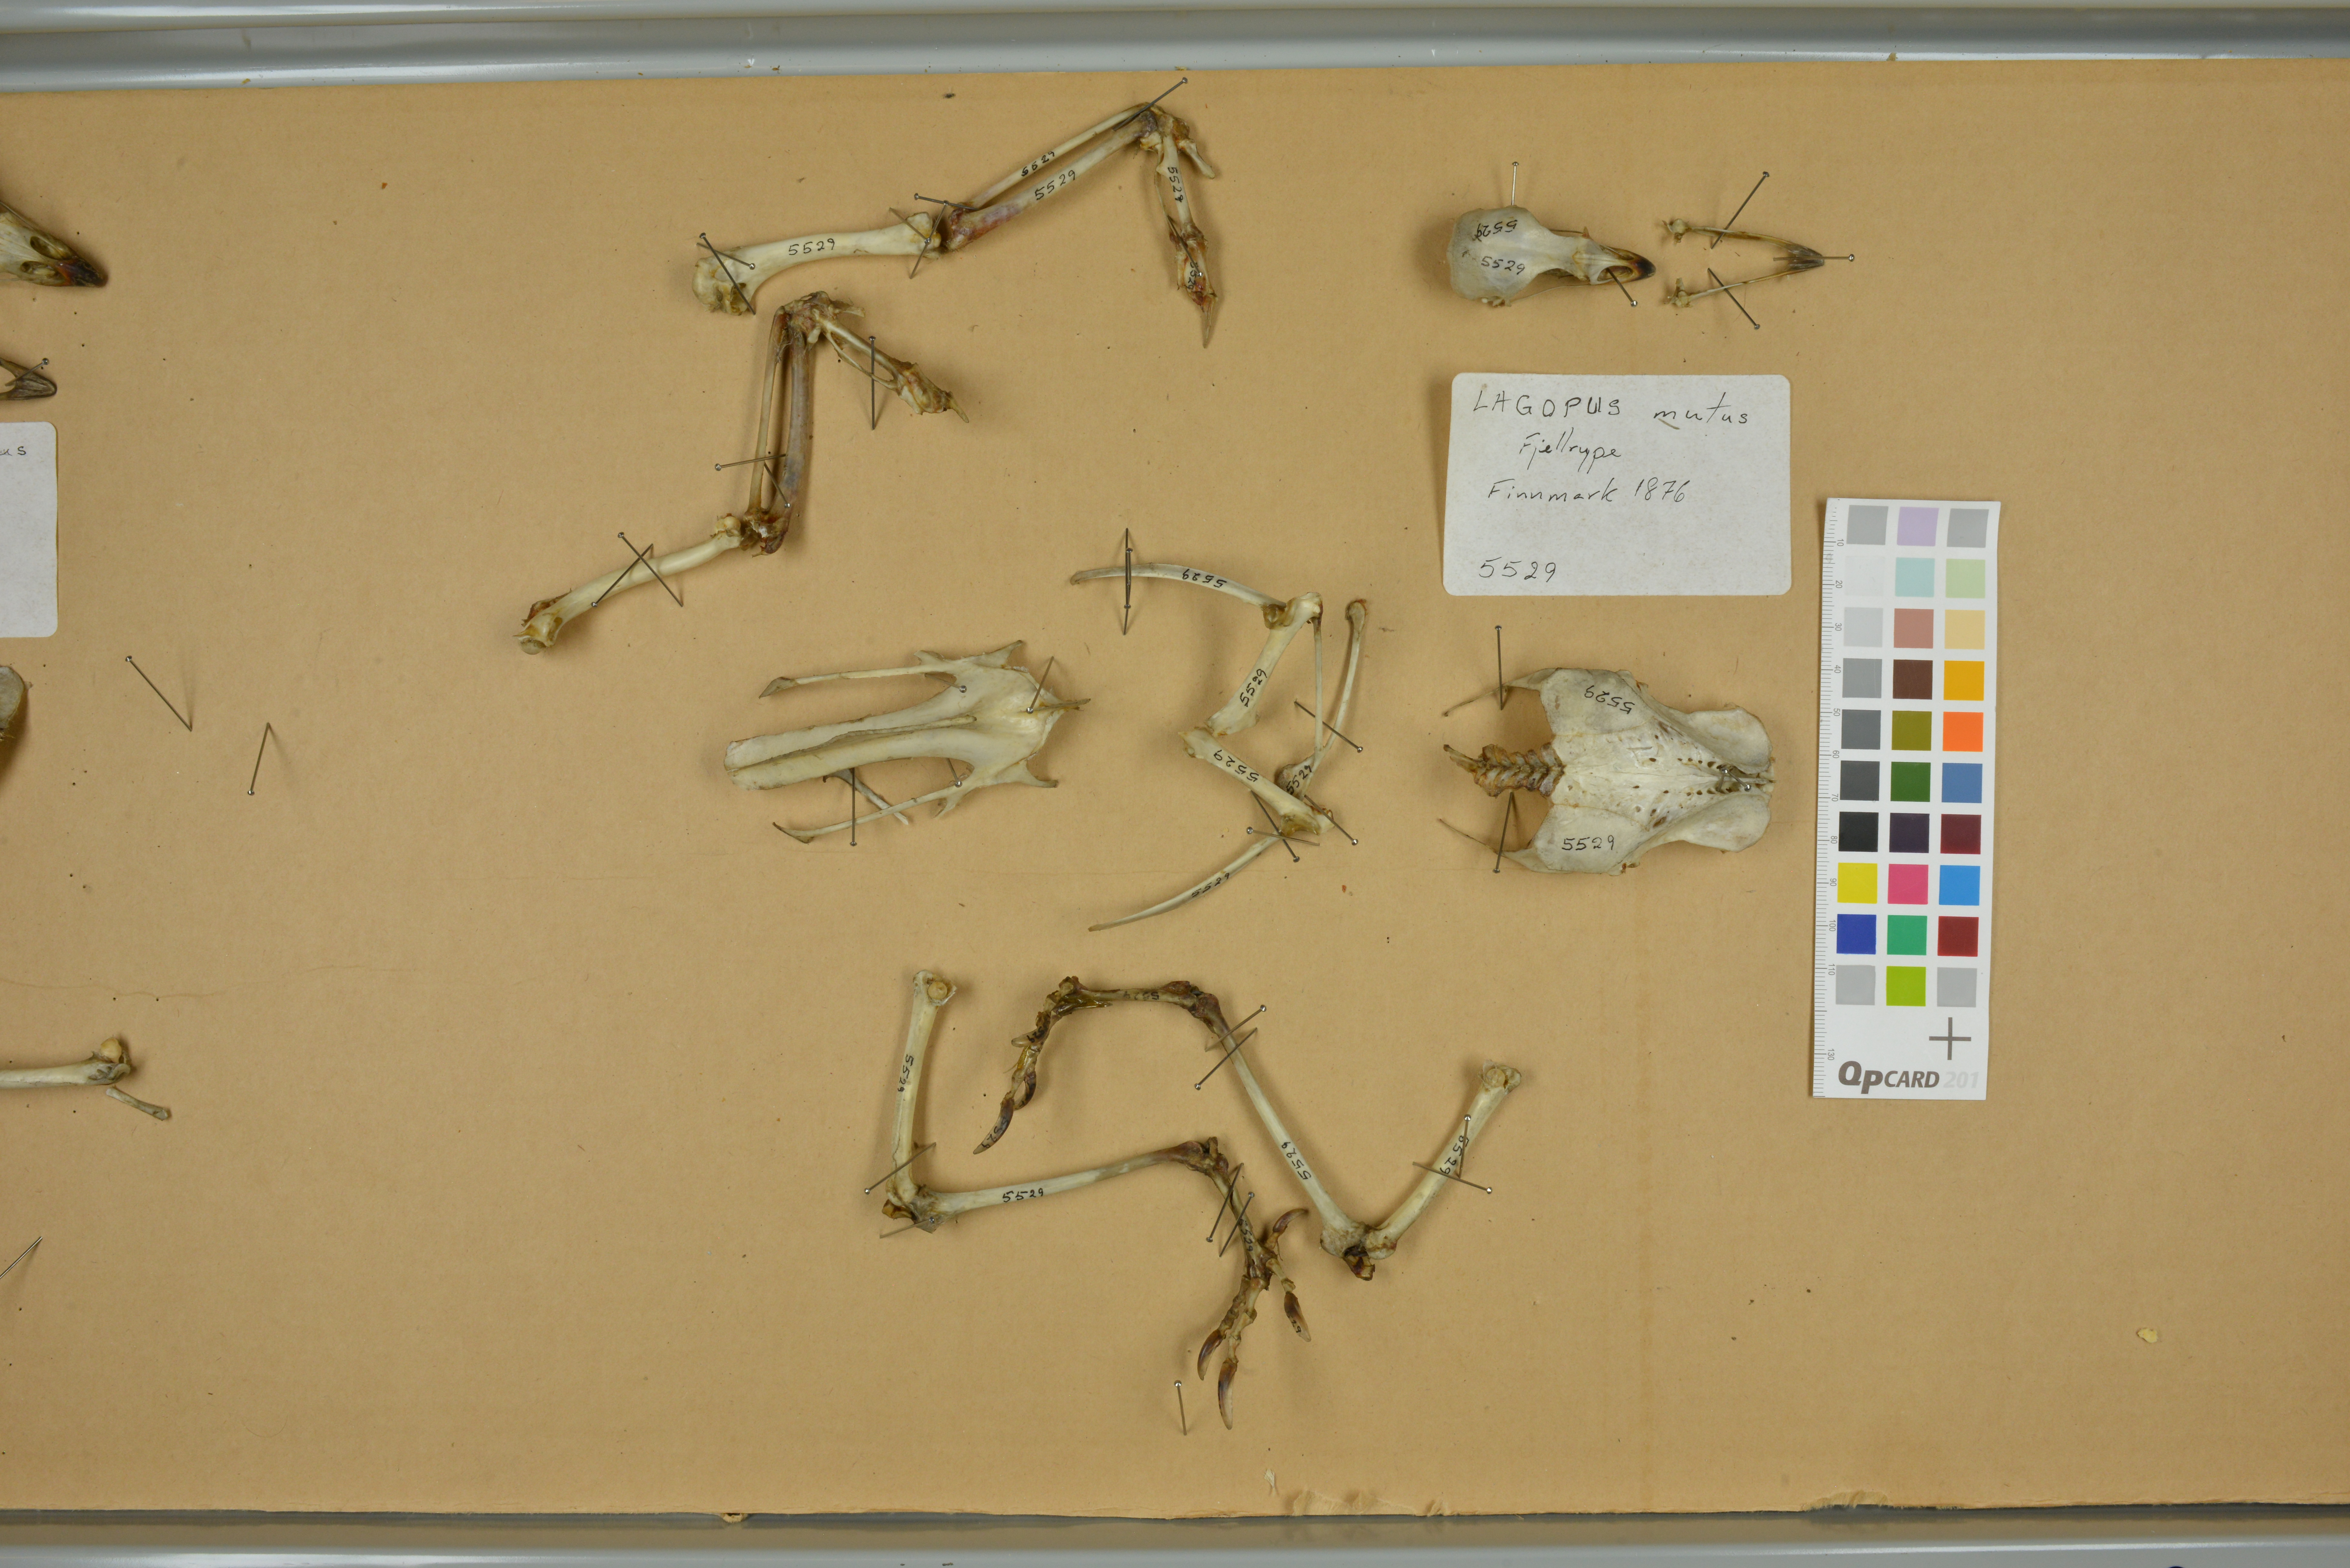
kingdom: Animalia
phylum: Chordata
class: Aves
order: Galliformes
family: Phasianidae
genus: Lagopus
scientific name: Lagopus muta
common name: Rock ptarmigan
